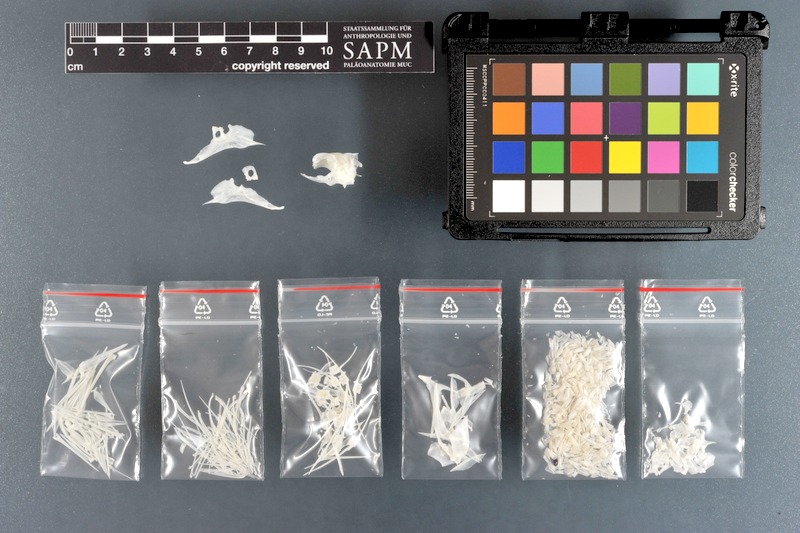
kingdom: Animalia
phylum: Chordata
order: Perciformes
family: Pomacanthidae
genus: Holacanthus
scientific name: Holacanthus ciliaris
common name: Queen angelfish
